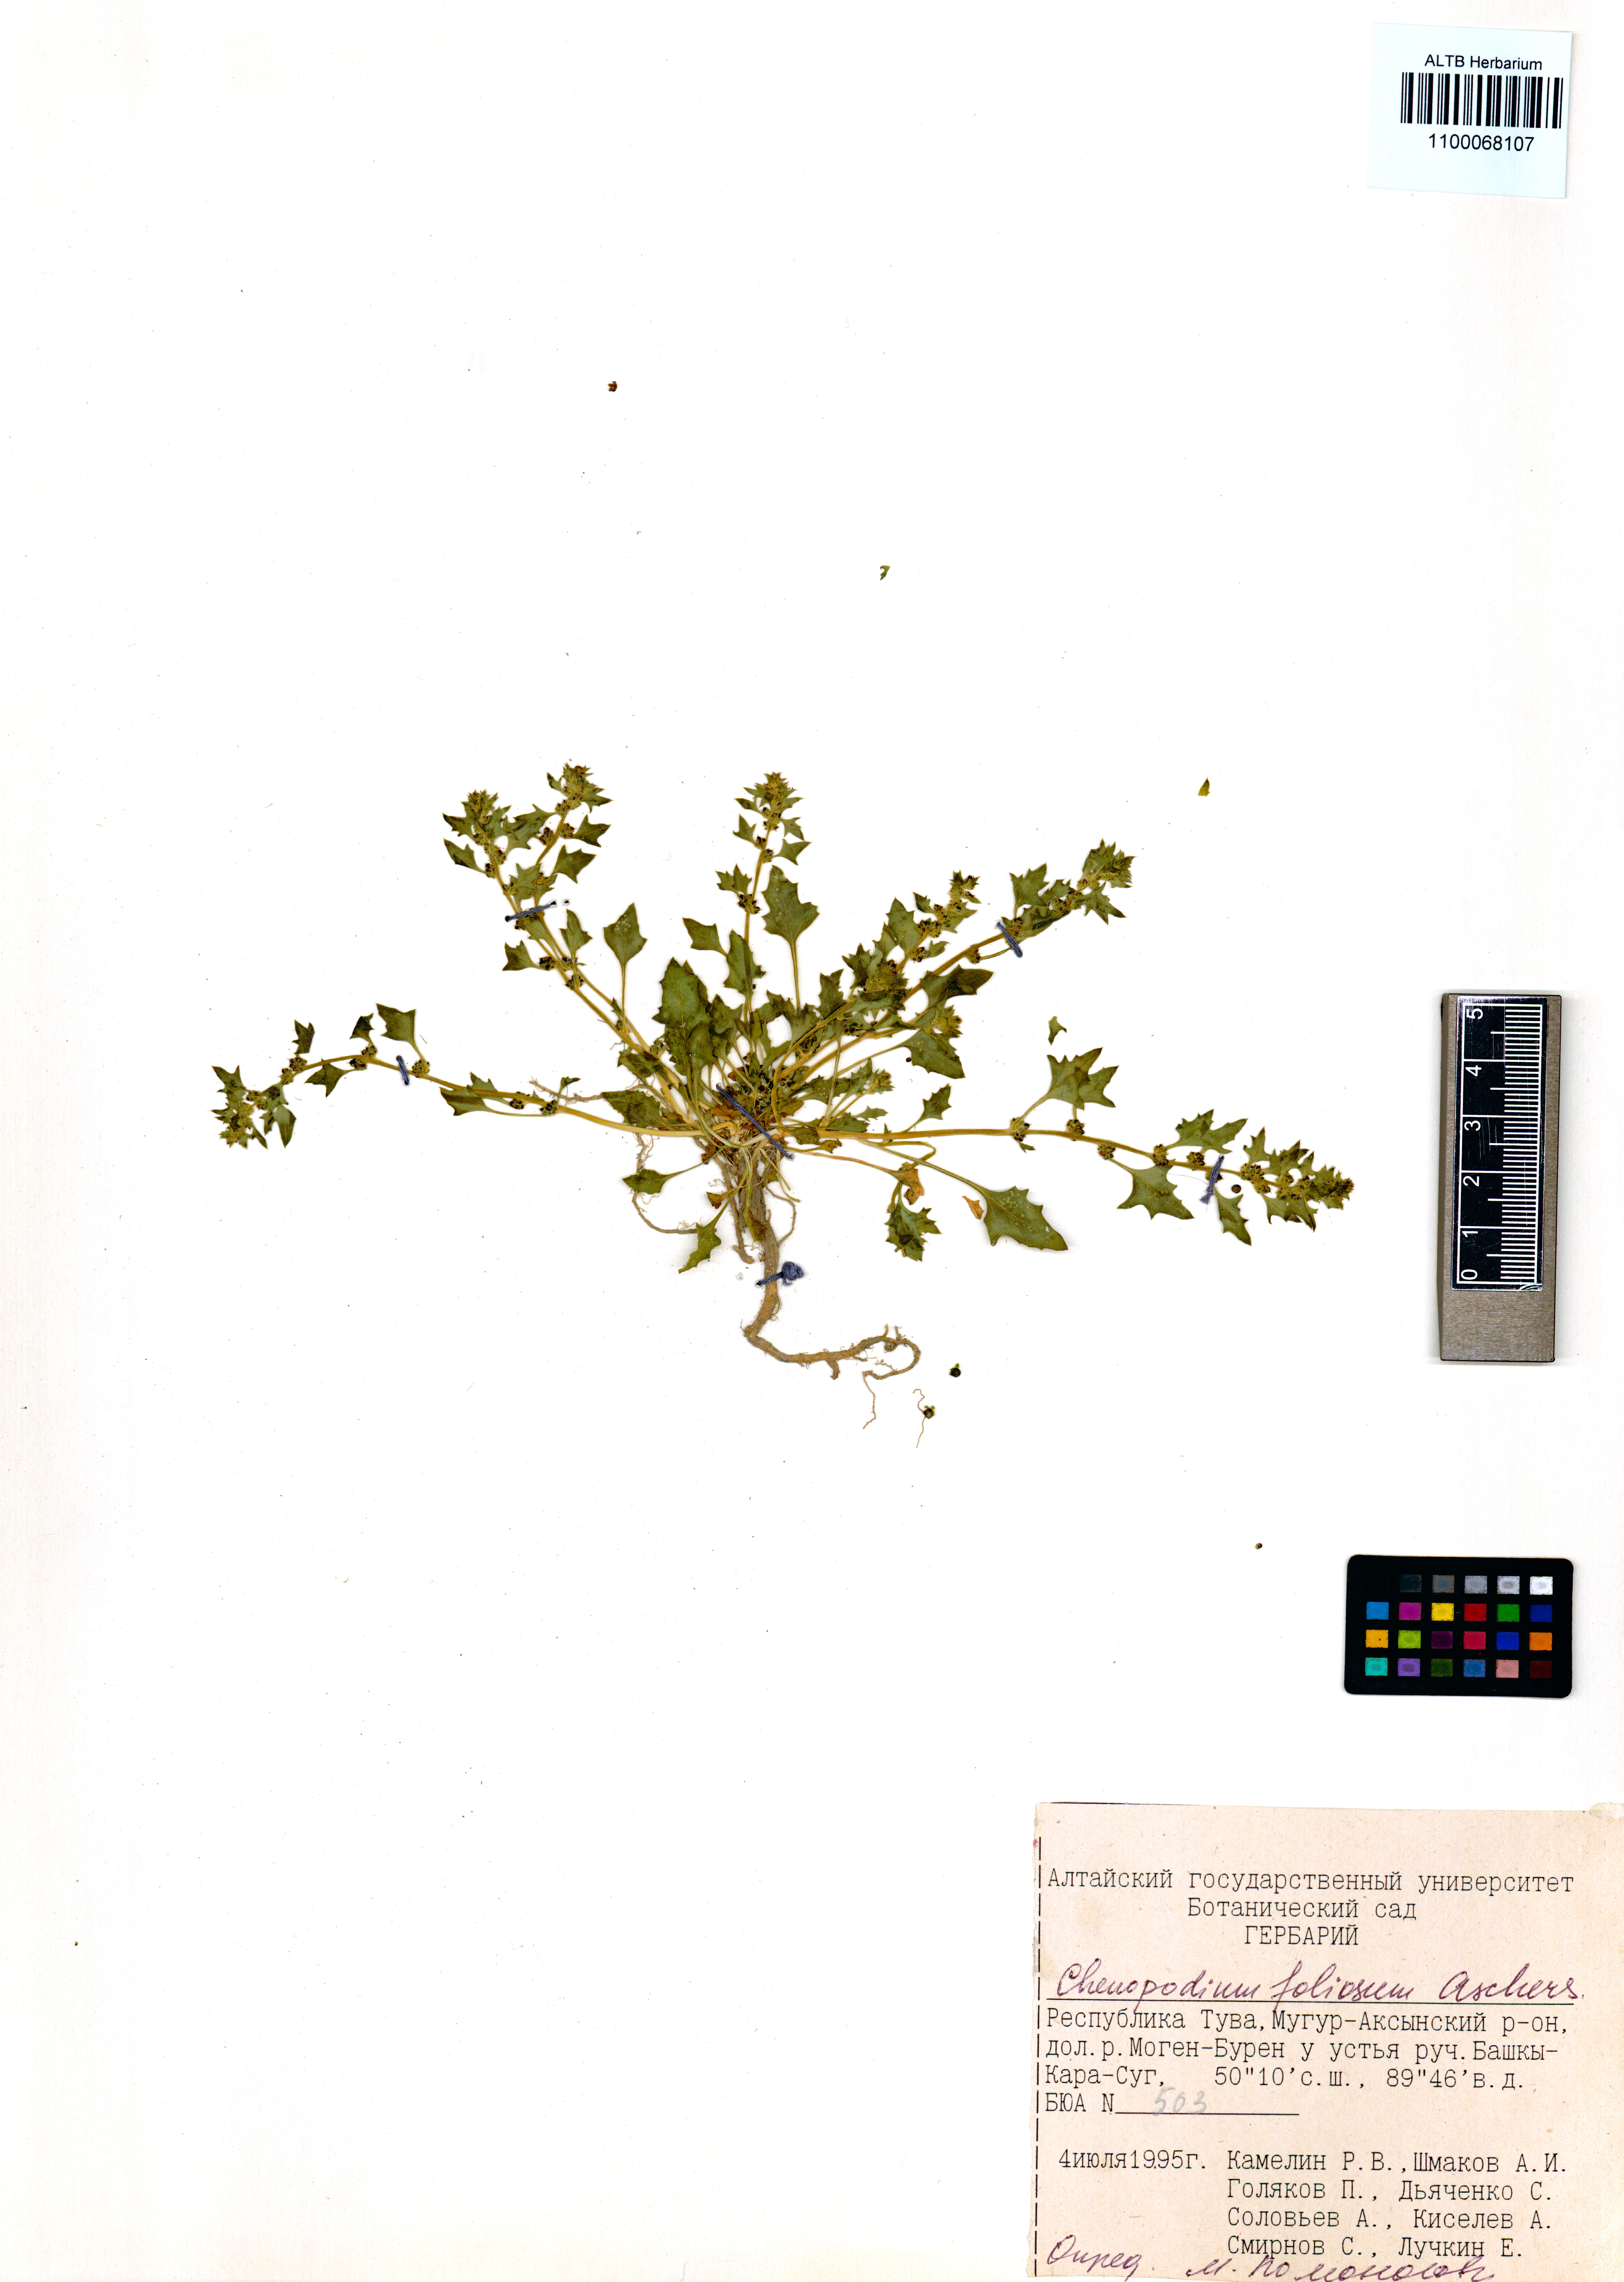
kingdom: Plantae
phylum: Tracheophyta
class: Magnoliopsida
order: Caryophyllales
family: Amaranthaceae
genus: Blitum
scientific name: Blitum virgatum
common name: Strawberry goosefoot
